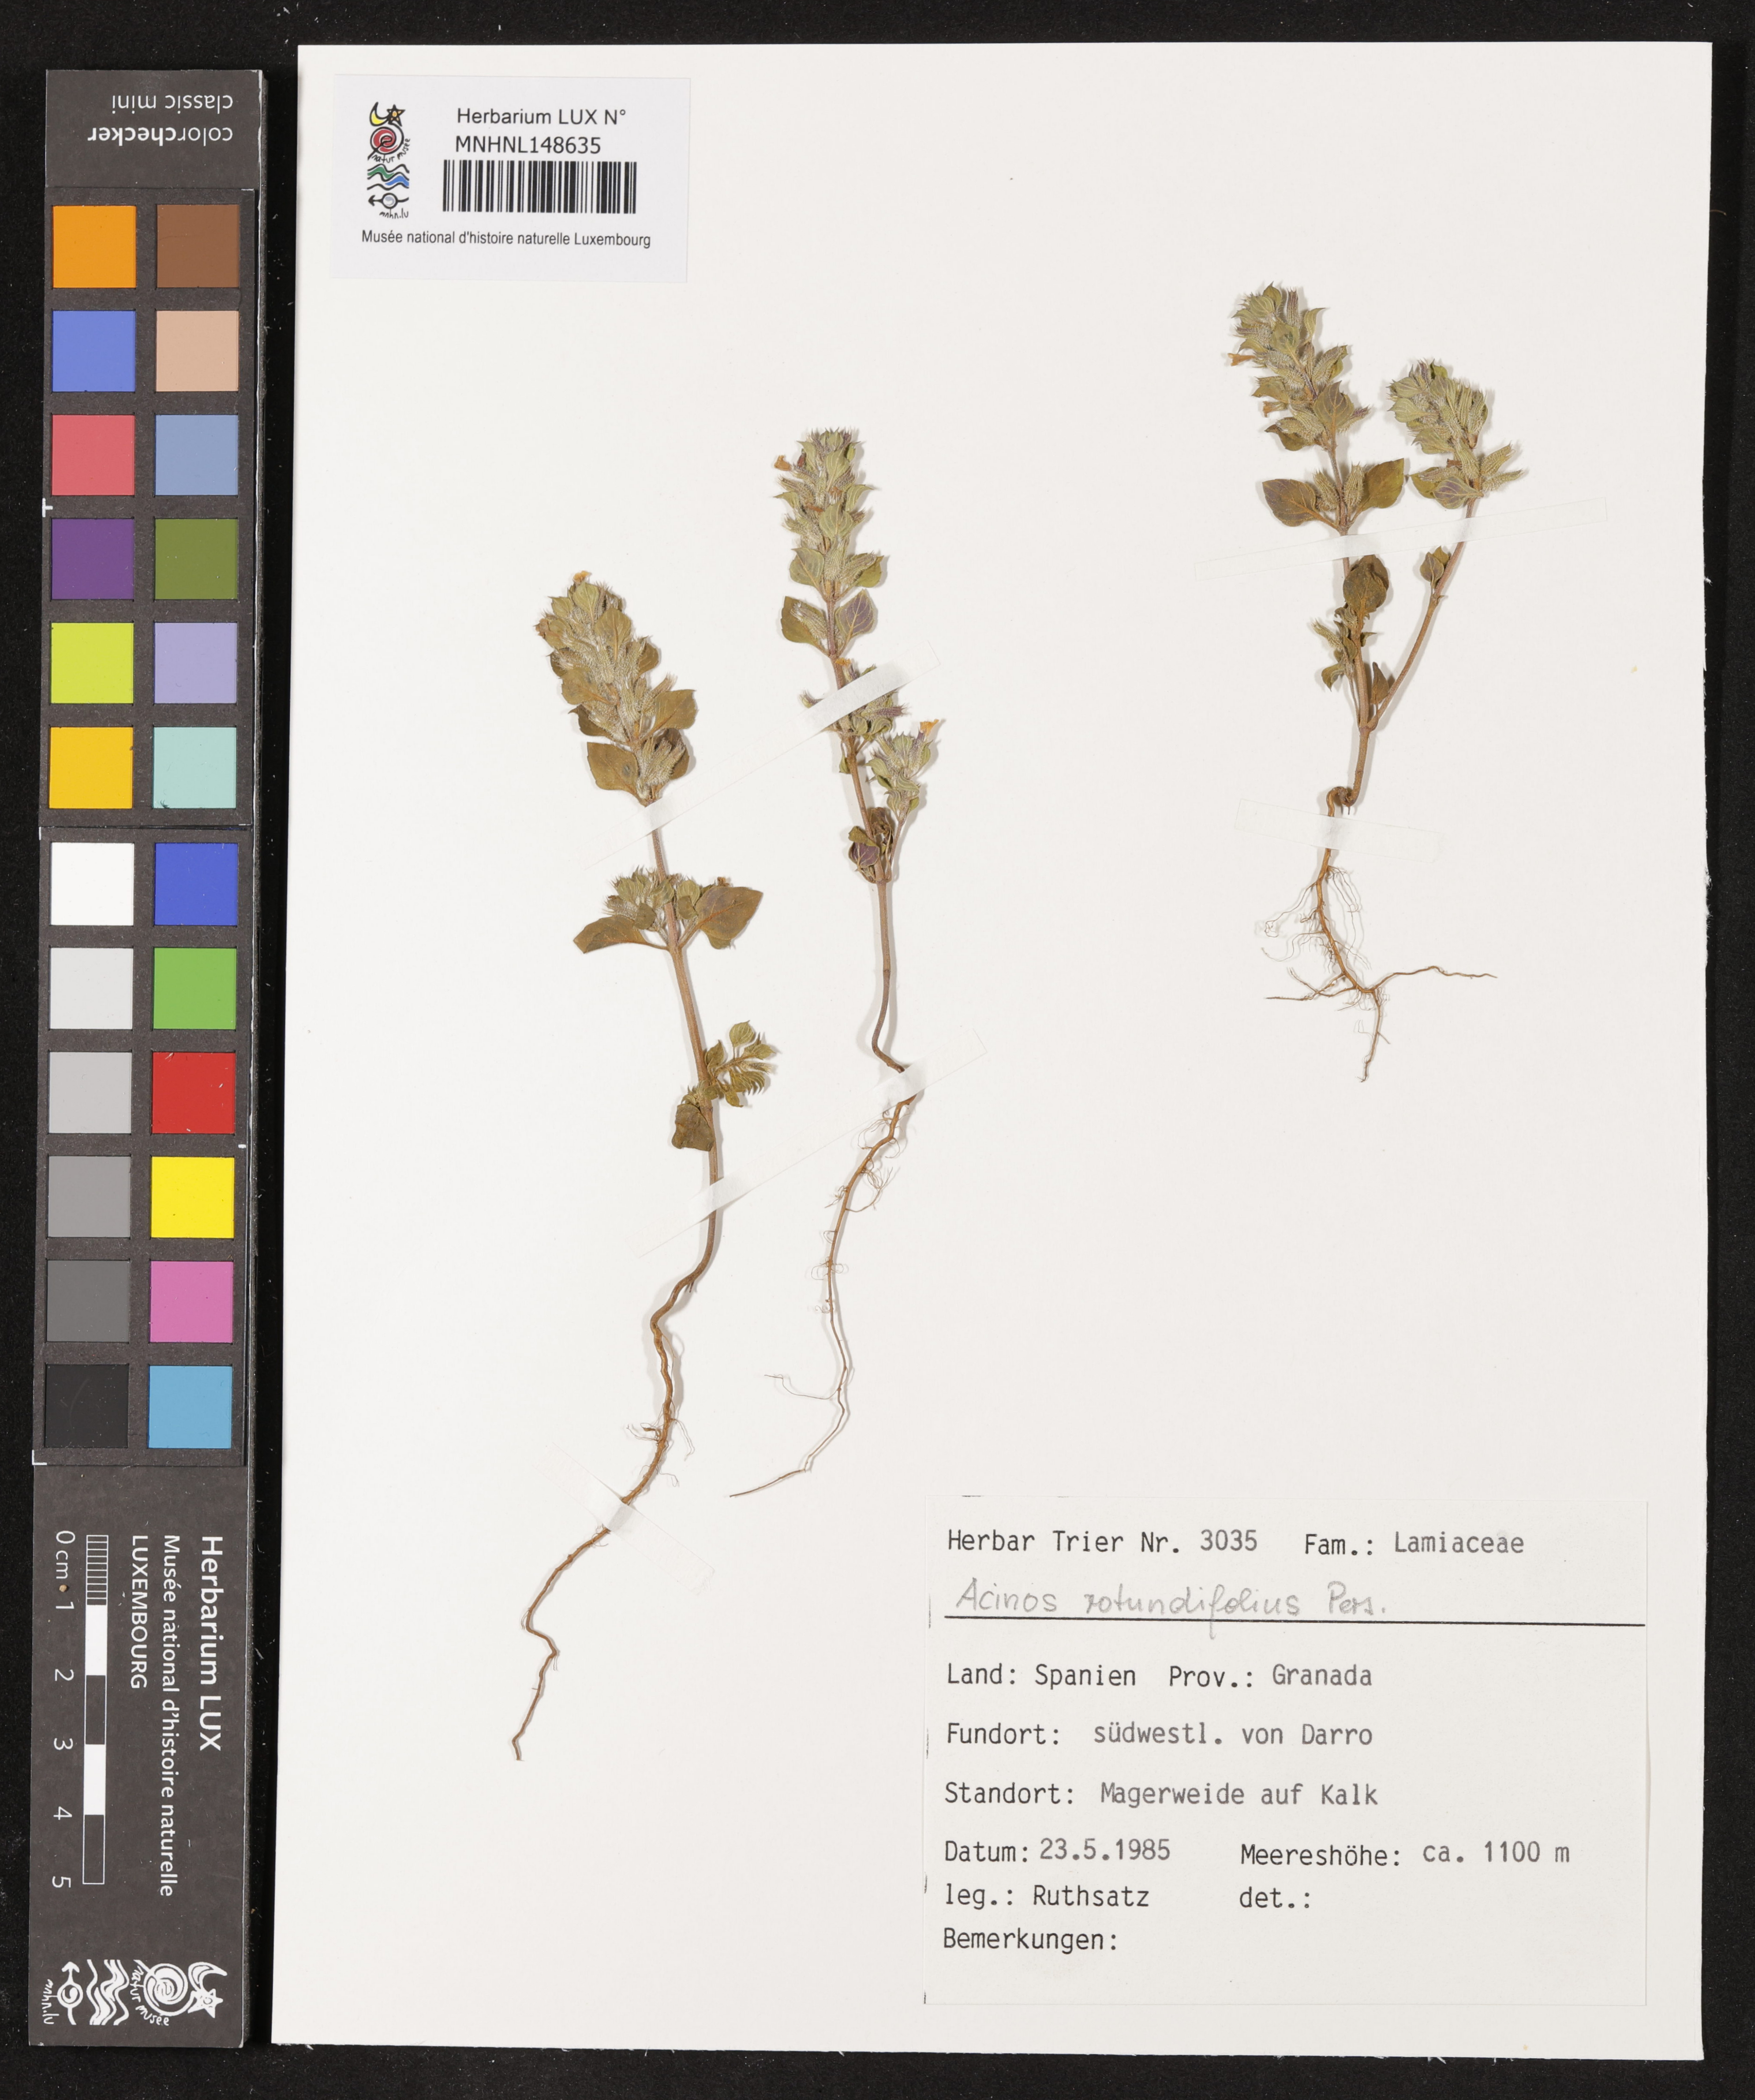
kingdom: Plantae
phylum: Tracheophyta
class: Magnoliopsida
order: Lamiales
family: Lamiaceae
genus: Clinopodium
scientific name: Clinopodium graveolens
